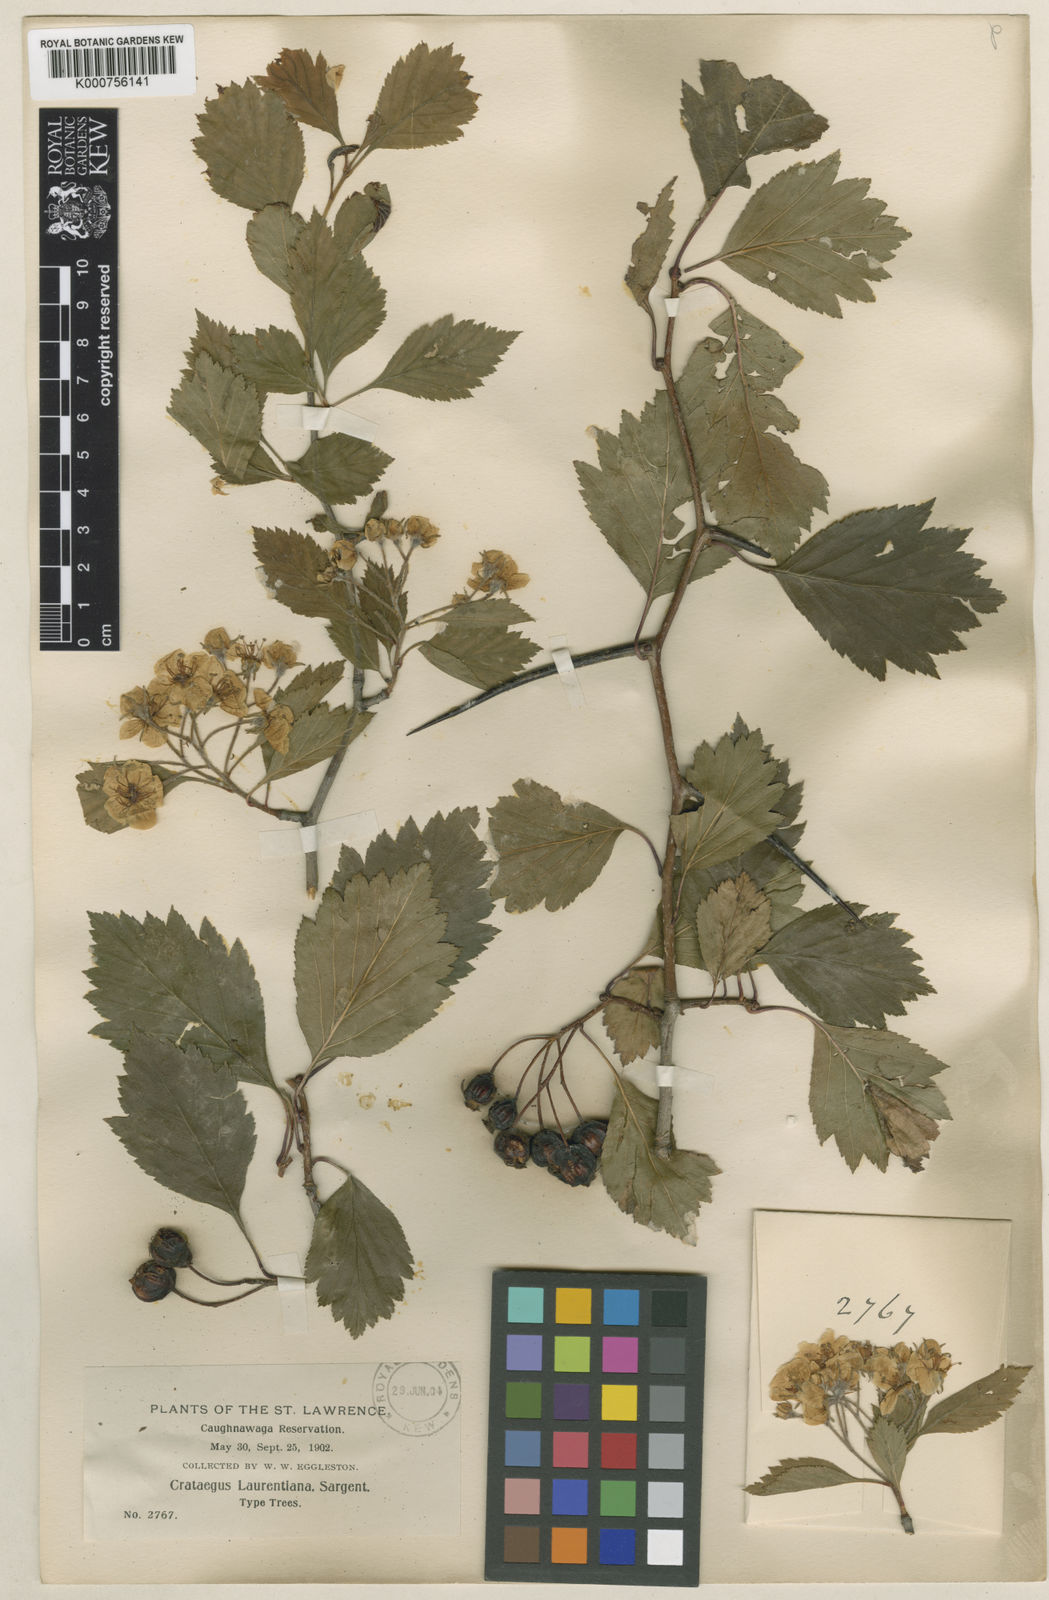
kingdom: Plantae
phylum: Tracheophyta
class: Magnoliopsida
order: Rosales
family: Rosaceae
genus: Crataegus
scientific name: Crataegus jonesiae
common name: Jones' hawthorn
